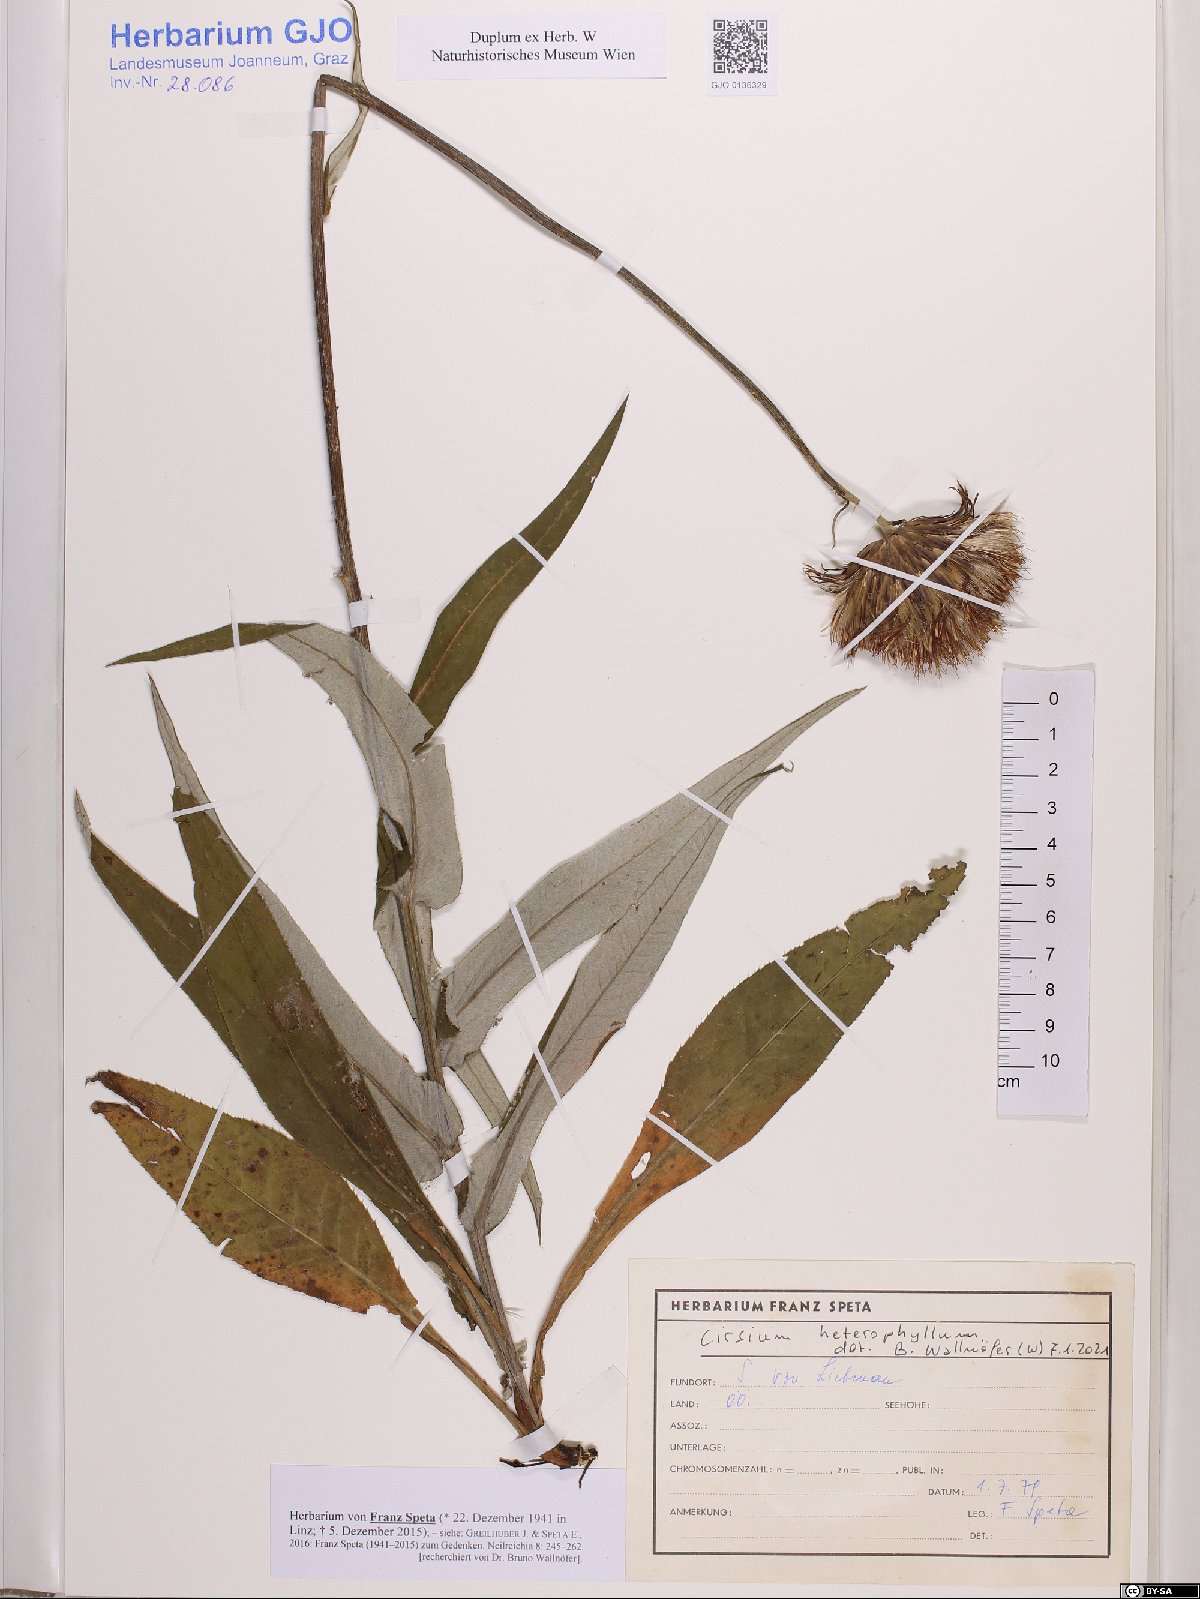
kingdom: Plantae
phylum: Tracheophyta
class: Magnoliopsida
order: Asterales
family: Asteraceae
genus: Cirsium
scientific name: Cirsium heterophyllum
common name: Melancholy thistle
